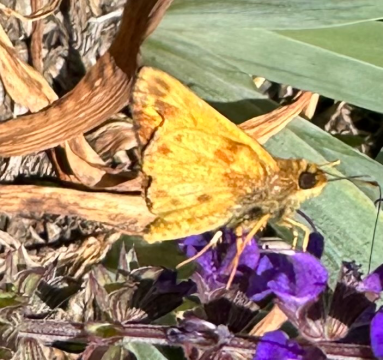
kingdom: Animalia
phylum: Arthropoda
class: Insecta
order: Lepidoptera
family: Hesperiidae
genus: Hylephila
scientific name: Hylephila phyleus
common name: Fiery Skipper
